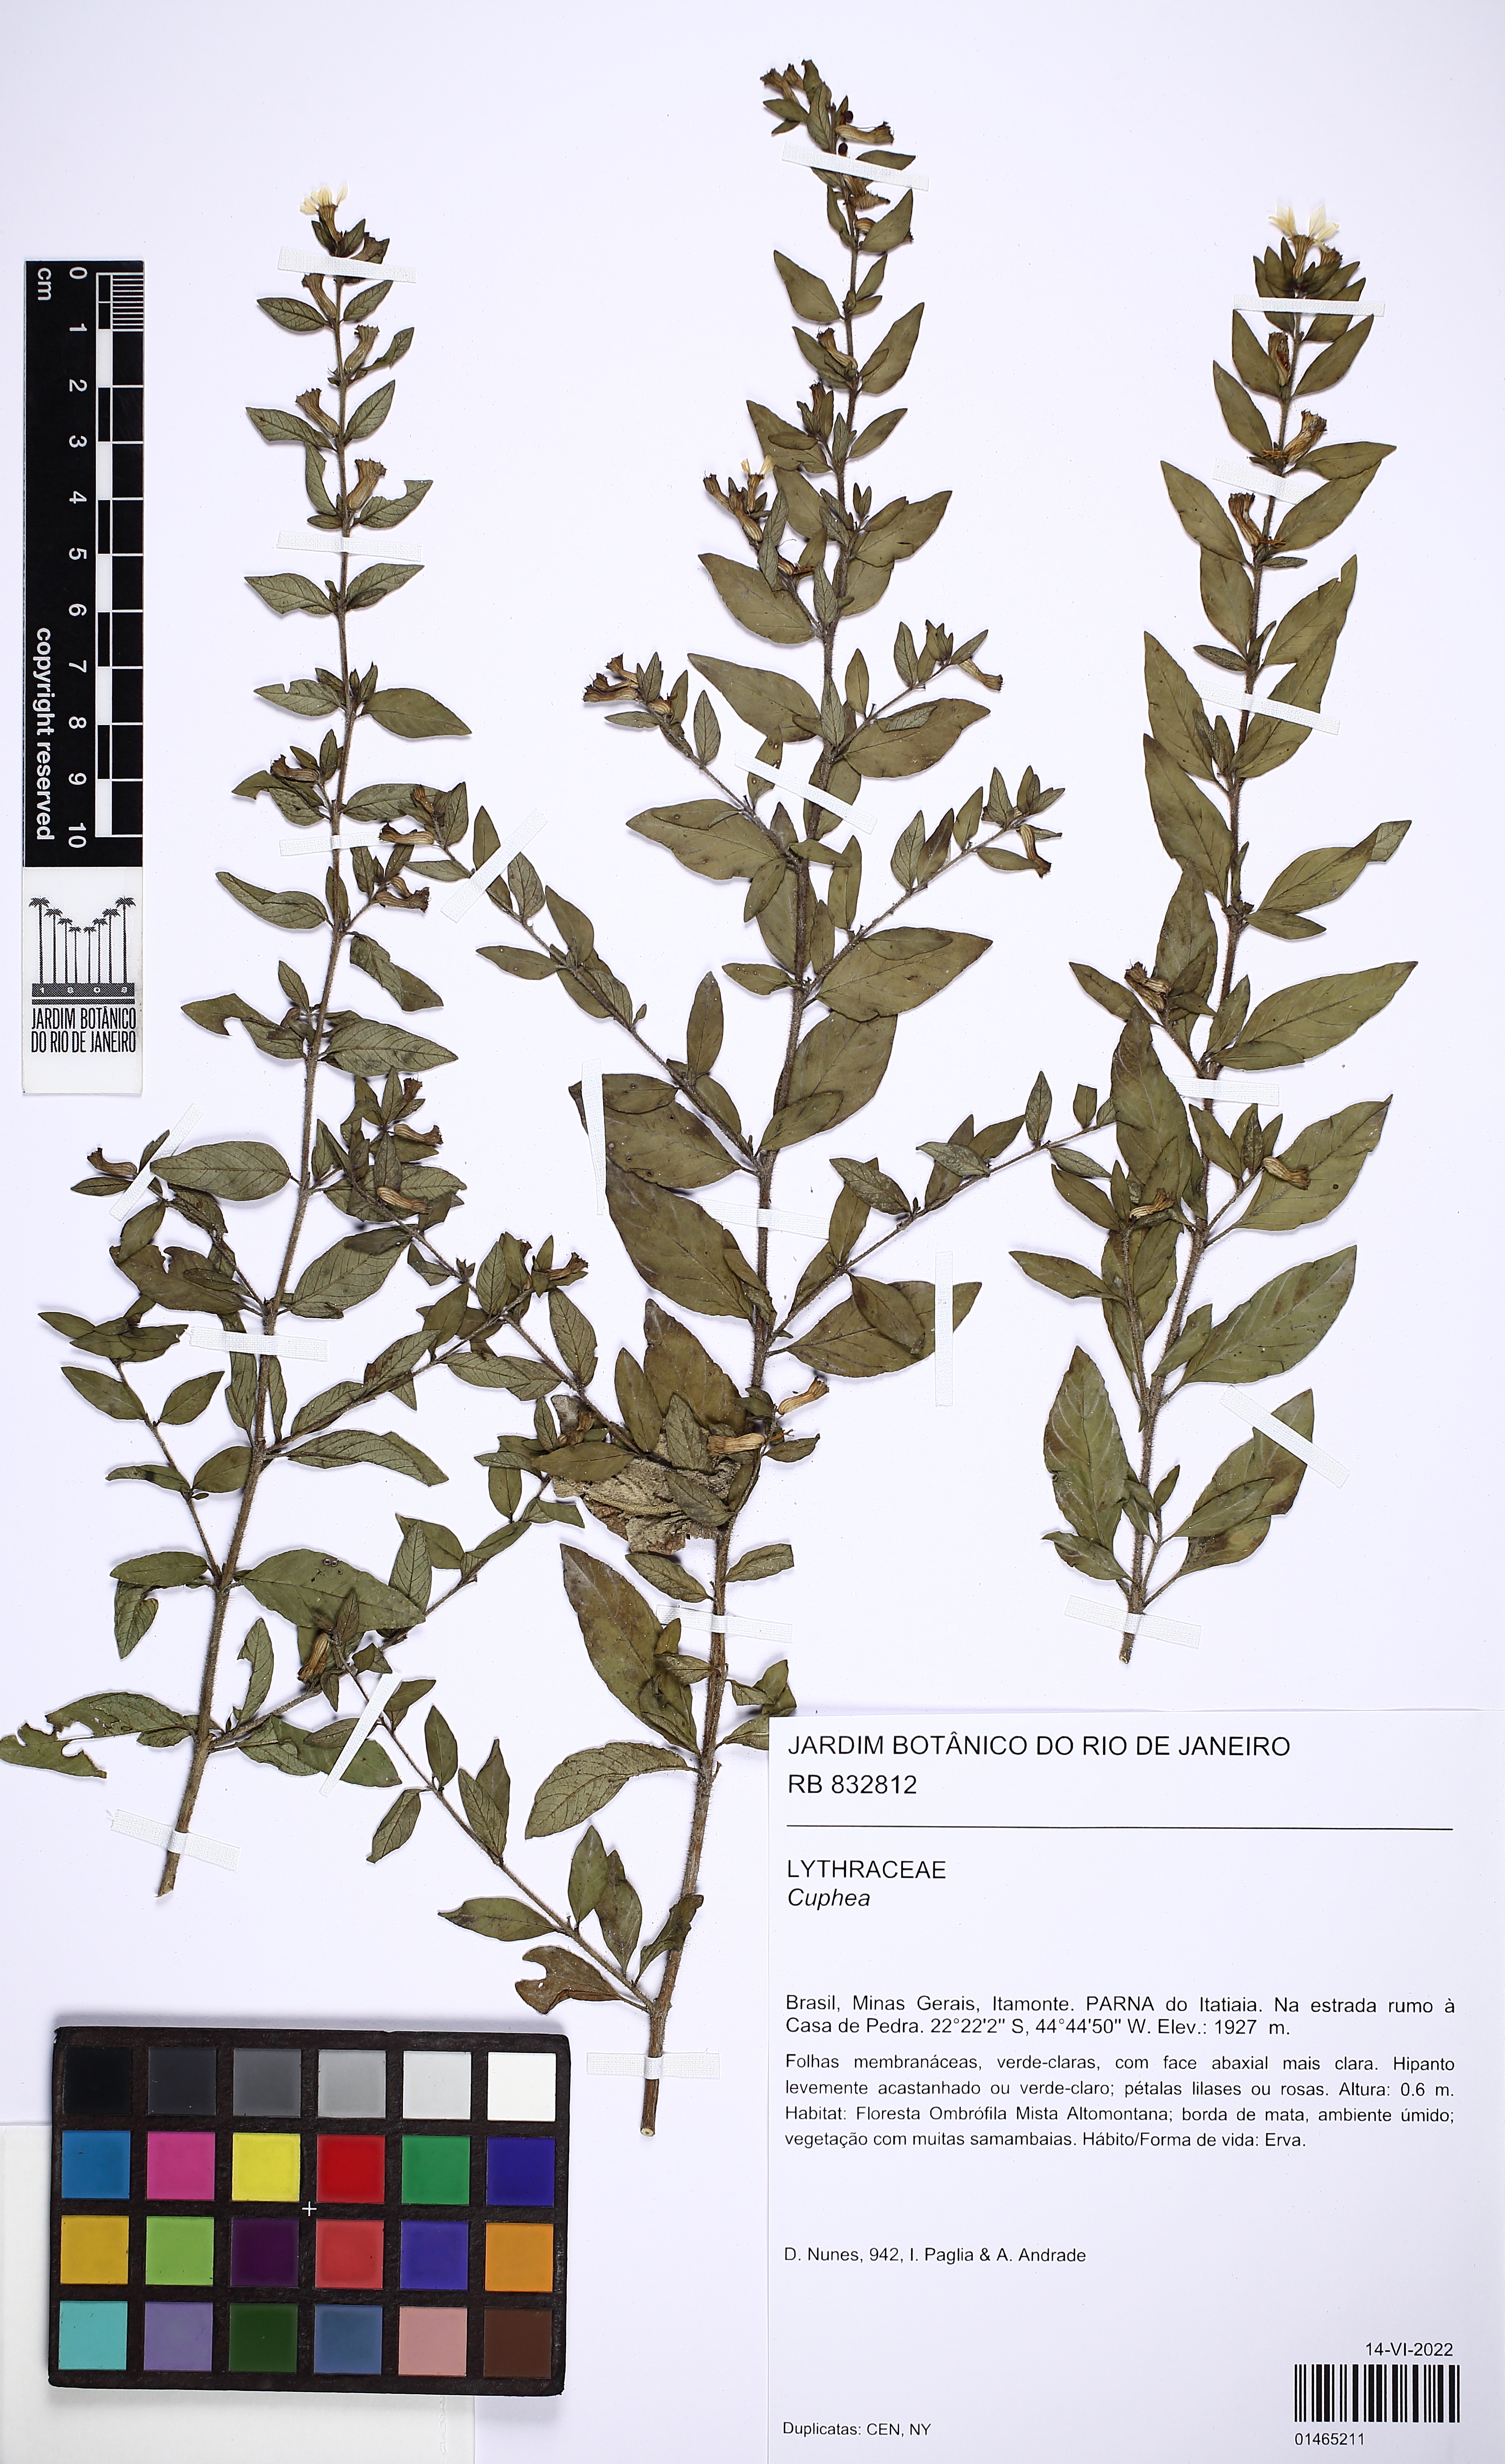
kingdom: Plantae
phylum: Tracheophyta
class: Magnoliopsida
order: Myrtales
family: Lythraceae
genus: Cuphea
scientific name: Cuphea ingrata
